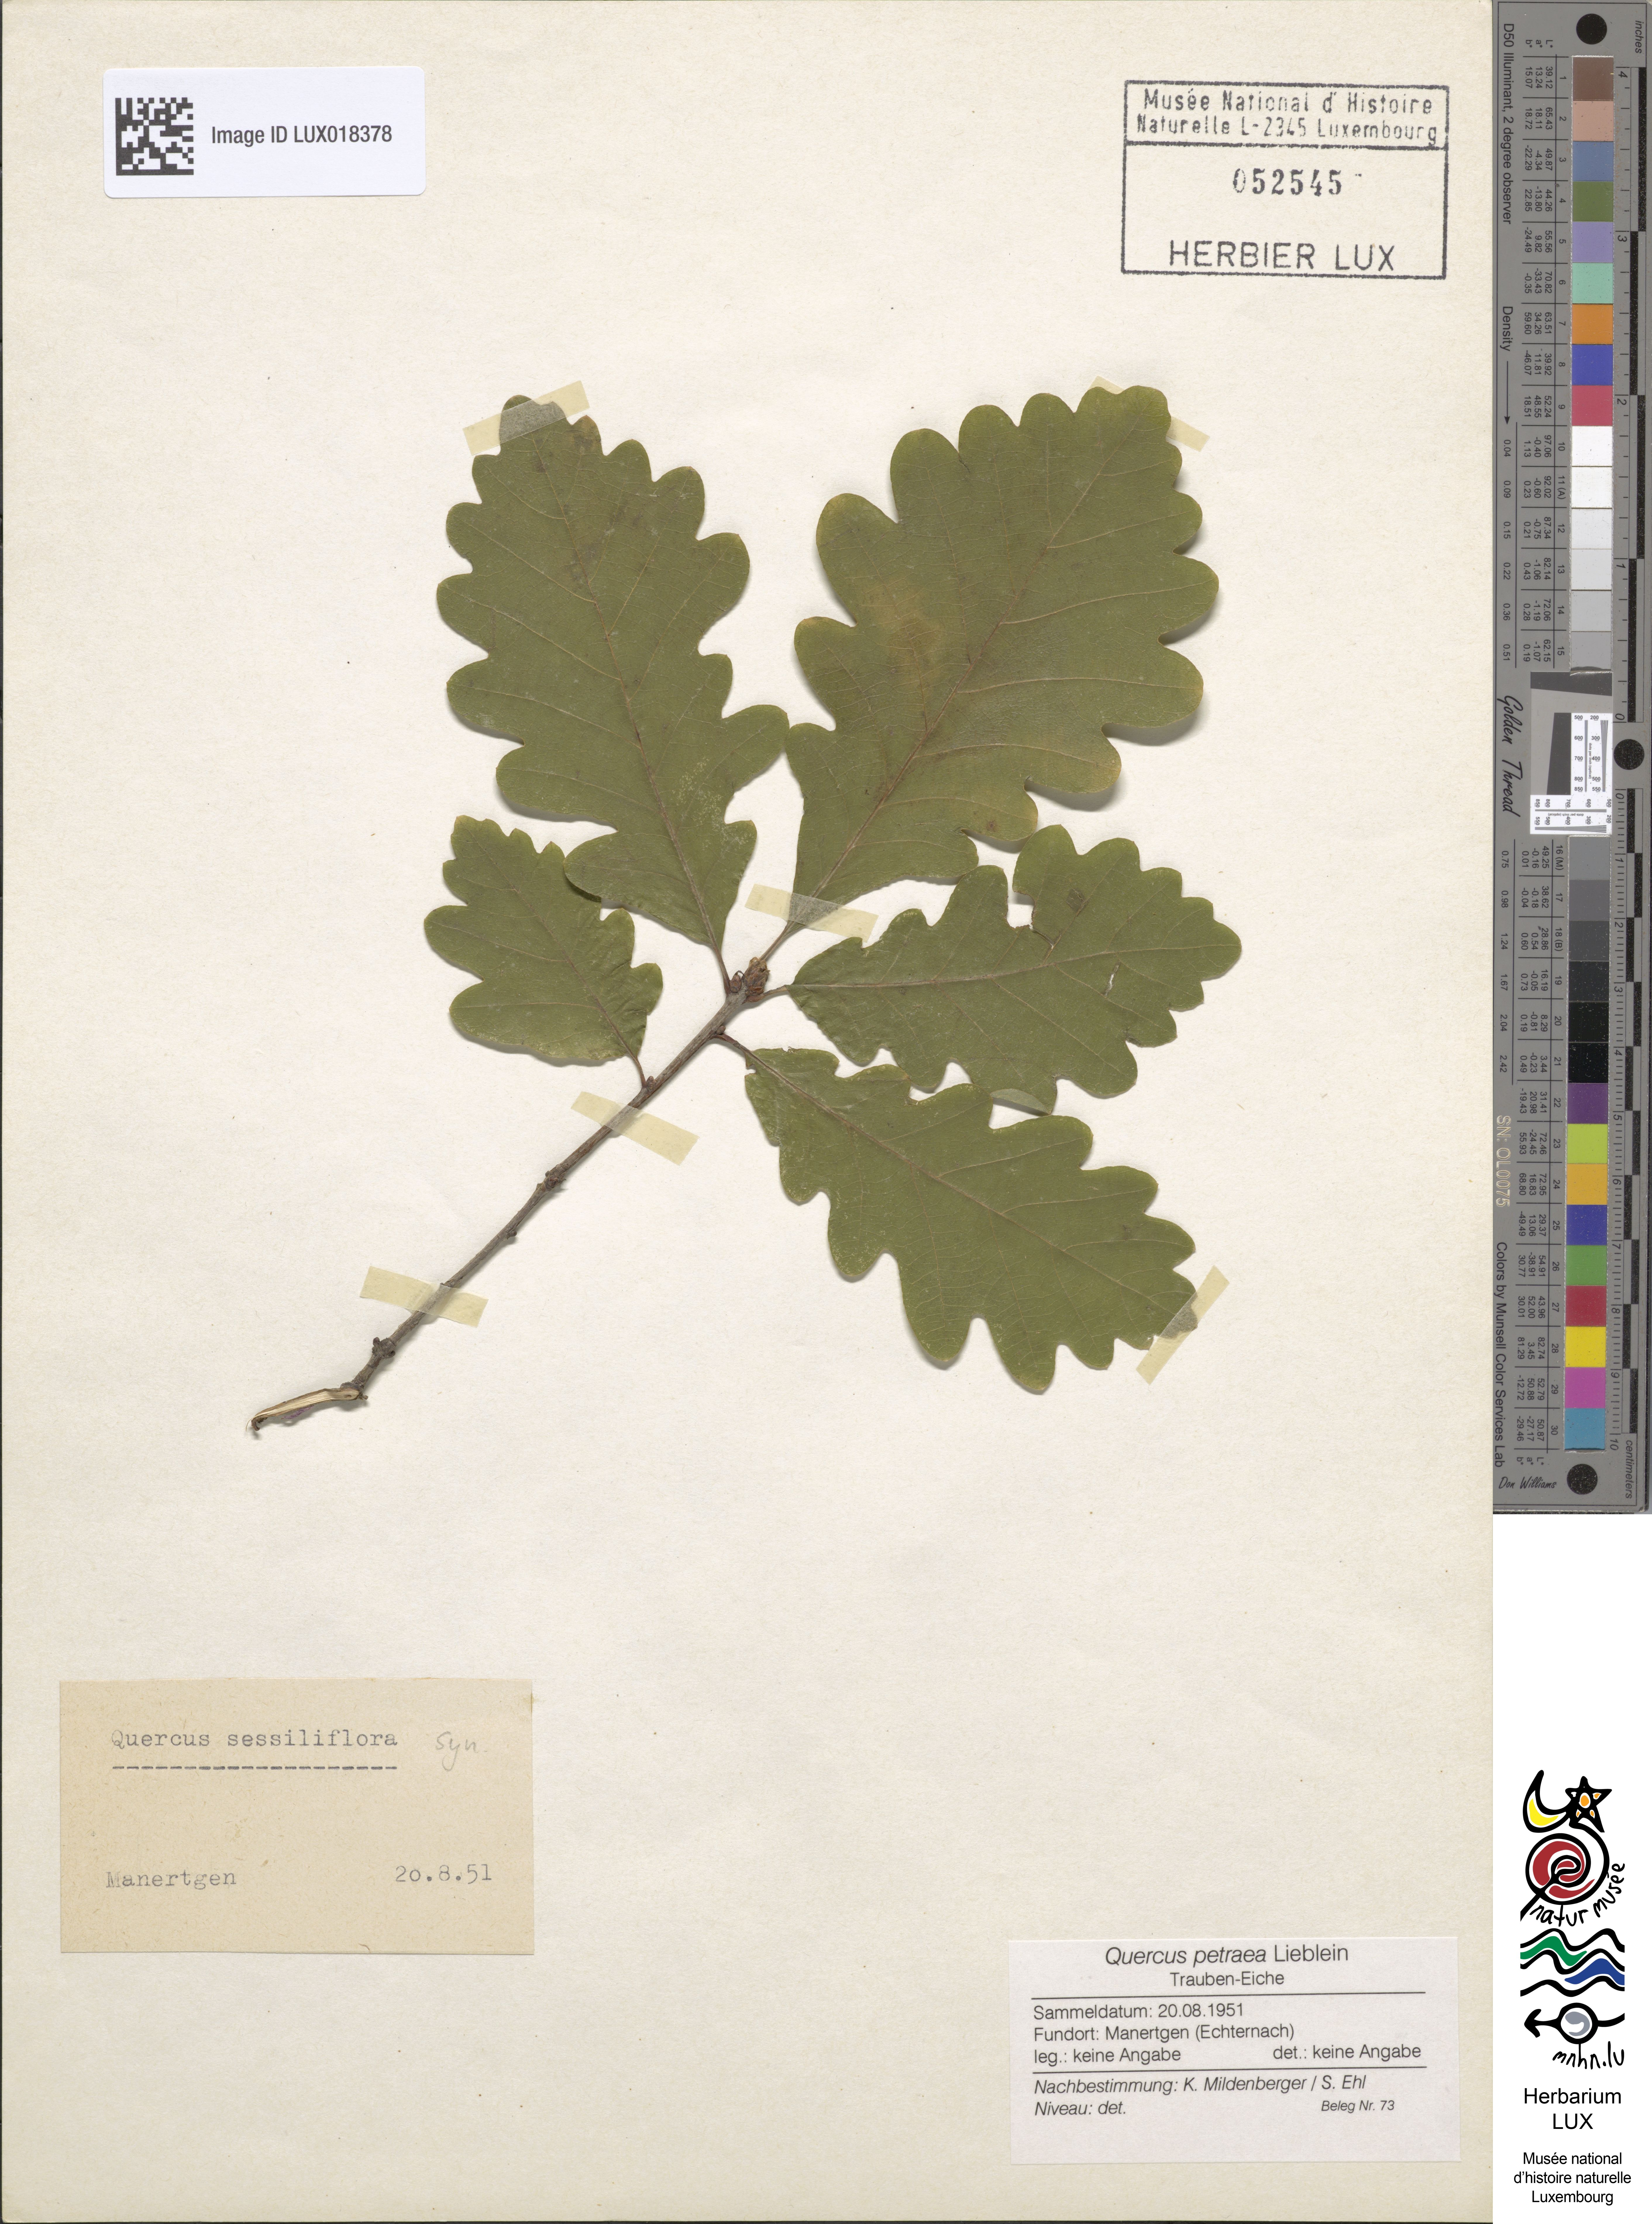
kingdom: Plantae
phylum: Tracheophyta
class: Magnoliopsida
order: Fagales
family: Fagaceae
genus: Quercus
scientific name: Quercus petraea
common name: Sessile oak
